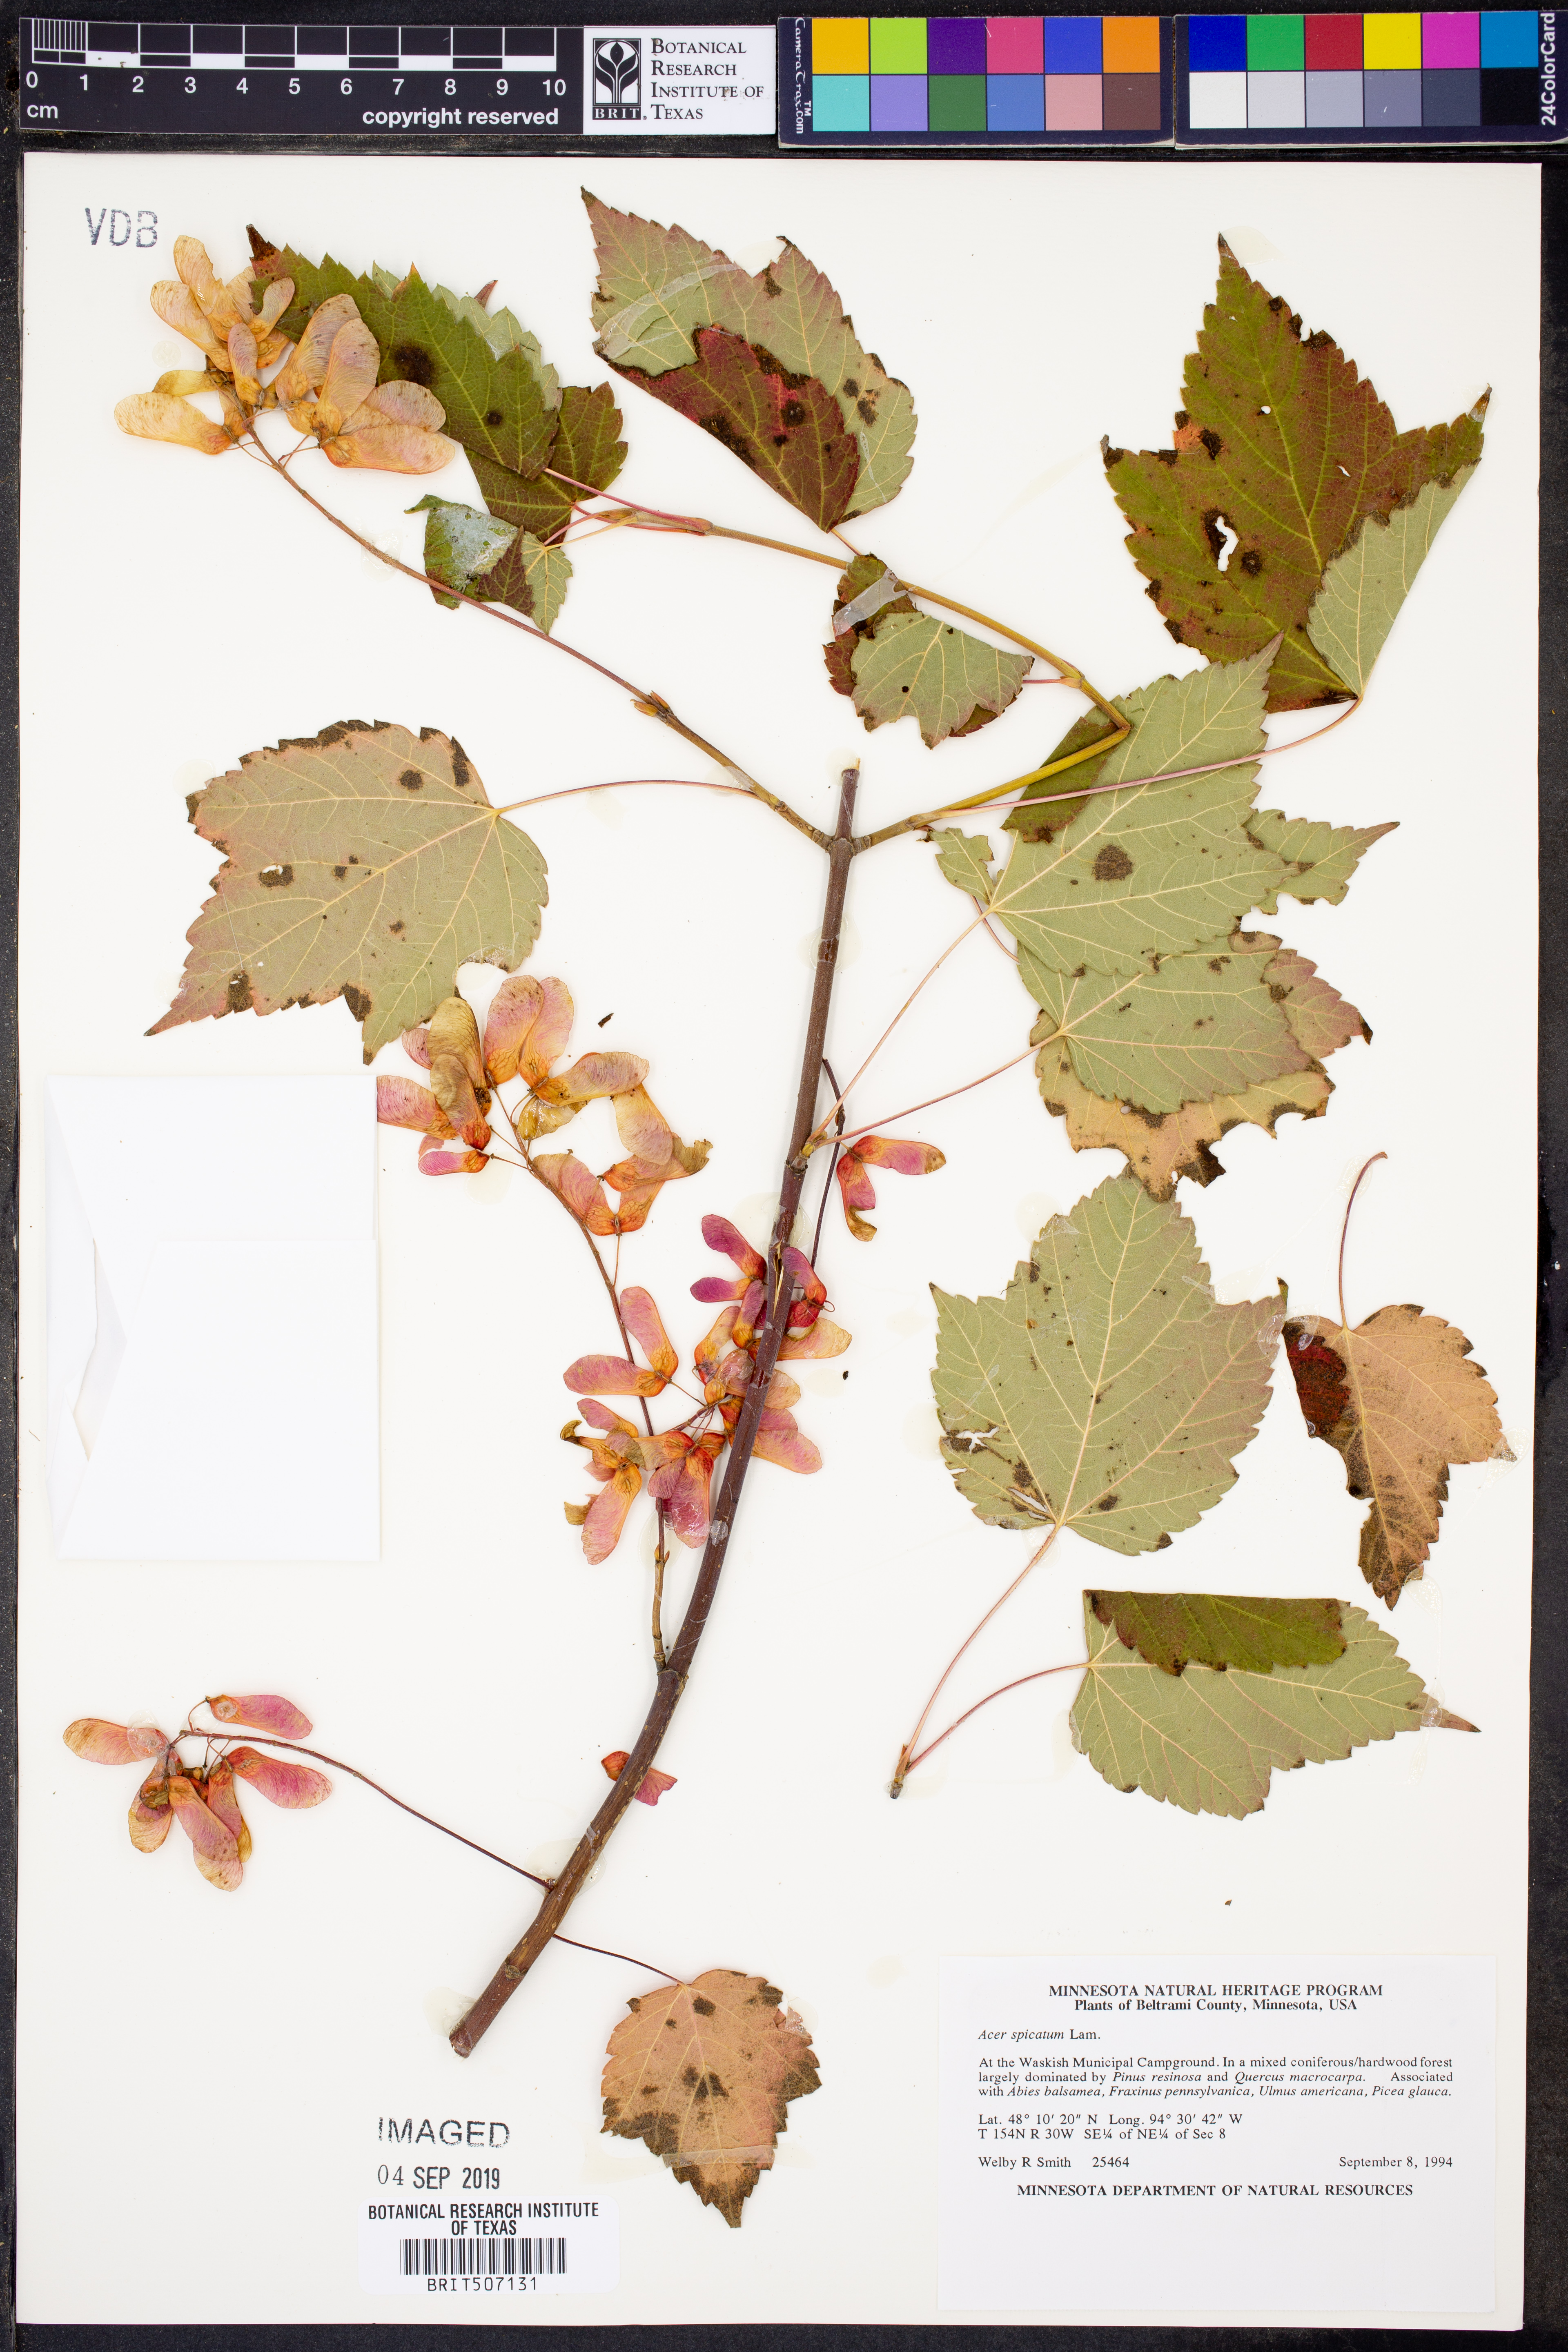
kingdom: Plantae
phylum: Tracheophyta
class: Magnoliopsida
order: Sapindales
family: Sapindaceae
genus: Acer
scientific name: Acer spicatum
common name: Mountain maple
